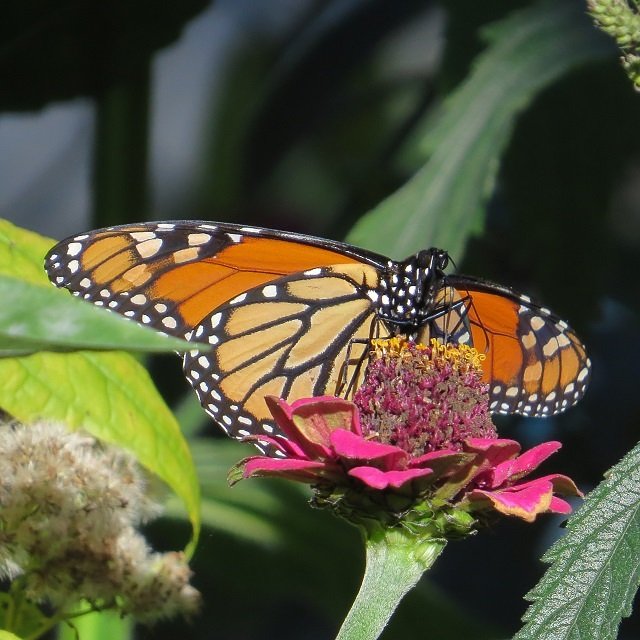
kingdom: Animalia
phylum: Arthropoda
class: Insecta
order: Lepidoptera
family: Nymphalidae
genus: Danaus
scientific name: Danaus plexippus
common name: Monarch
